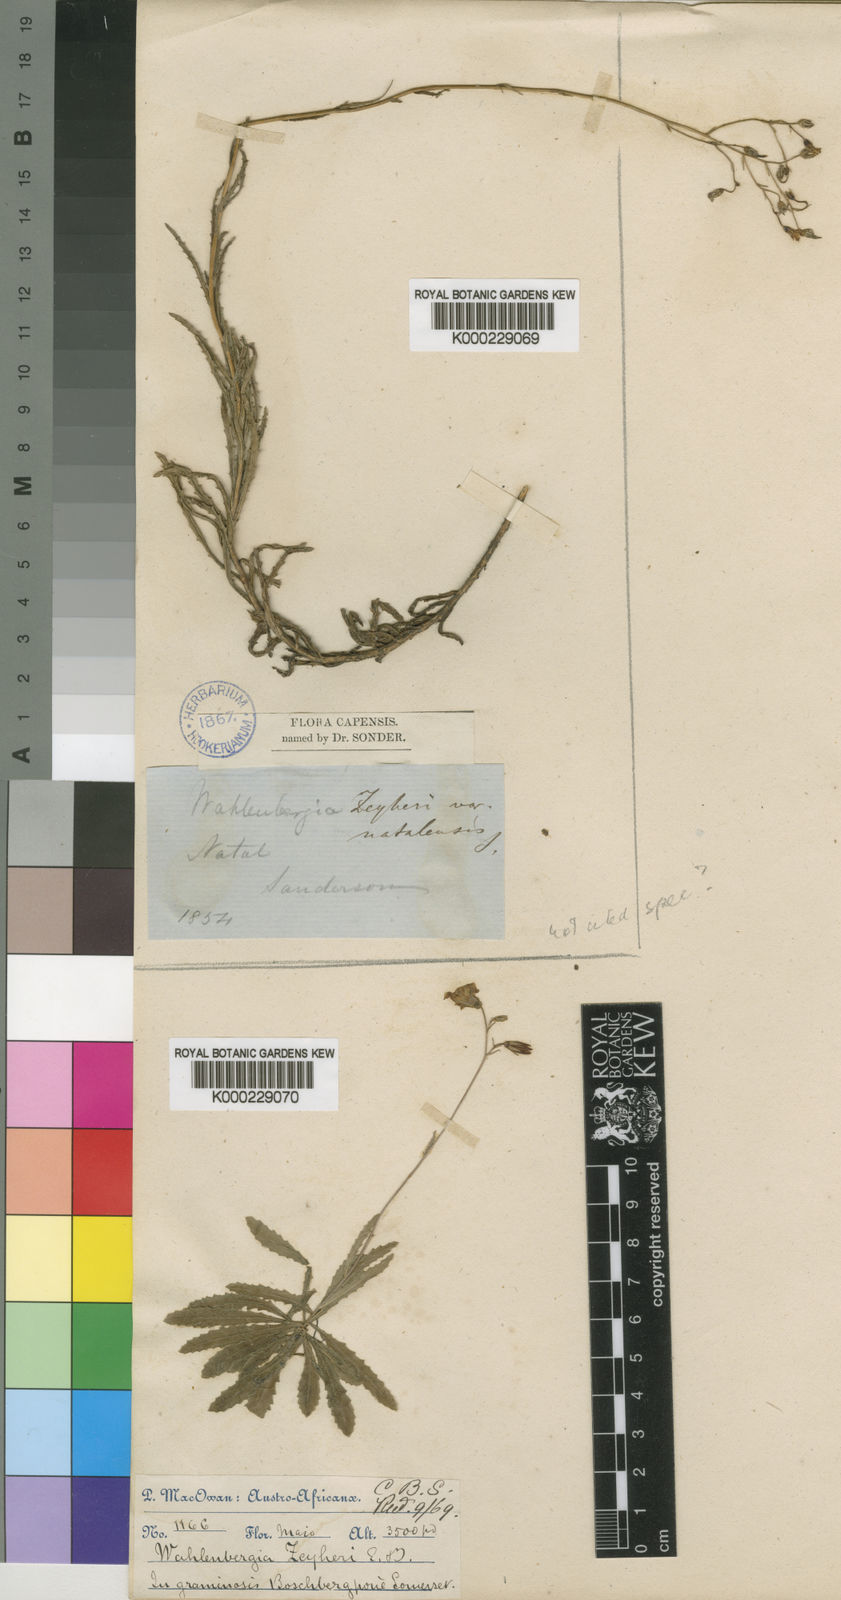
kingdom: Plantae
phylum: Tracheophyta
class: Magnoliopsida
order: Asterales
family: Campanulaceae
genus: Wahlenbergia
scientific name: Wahlenbergia krebsii
